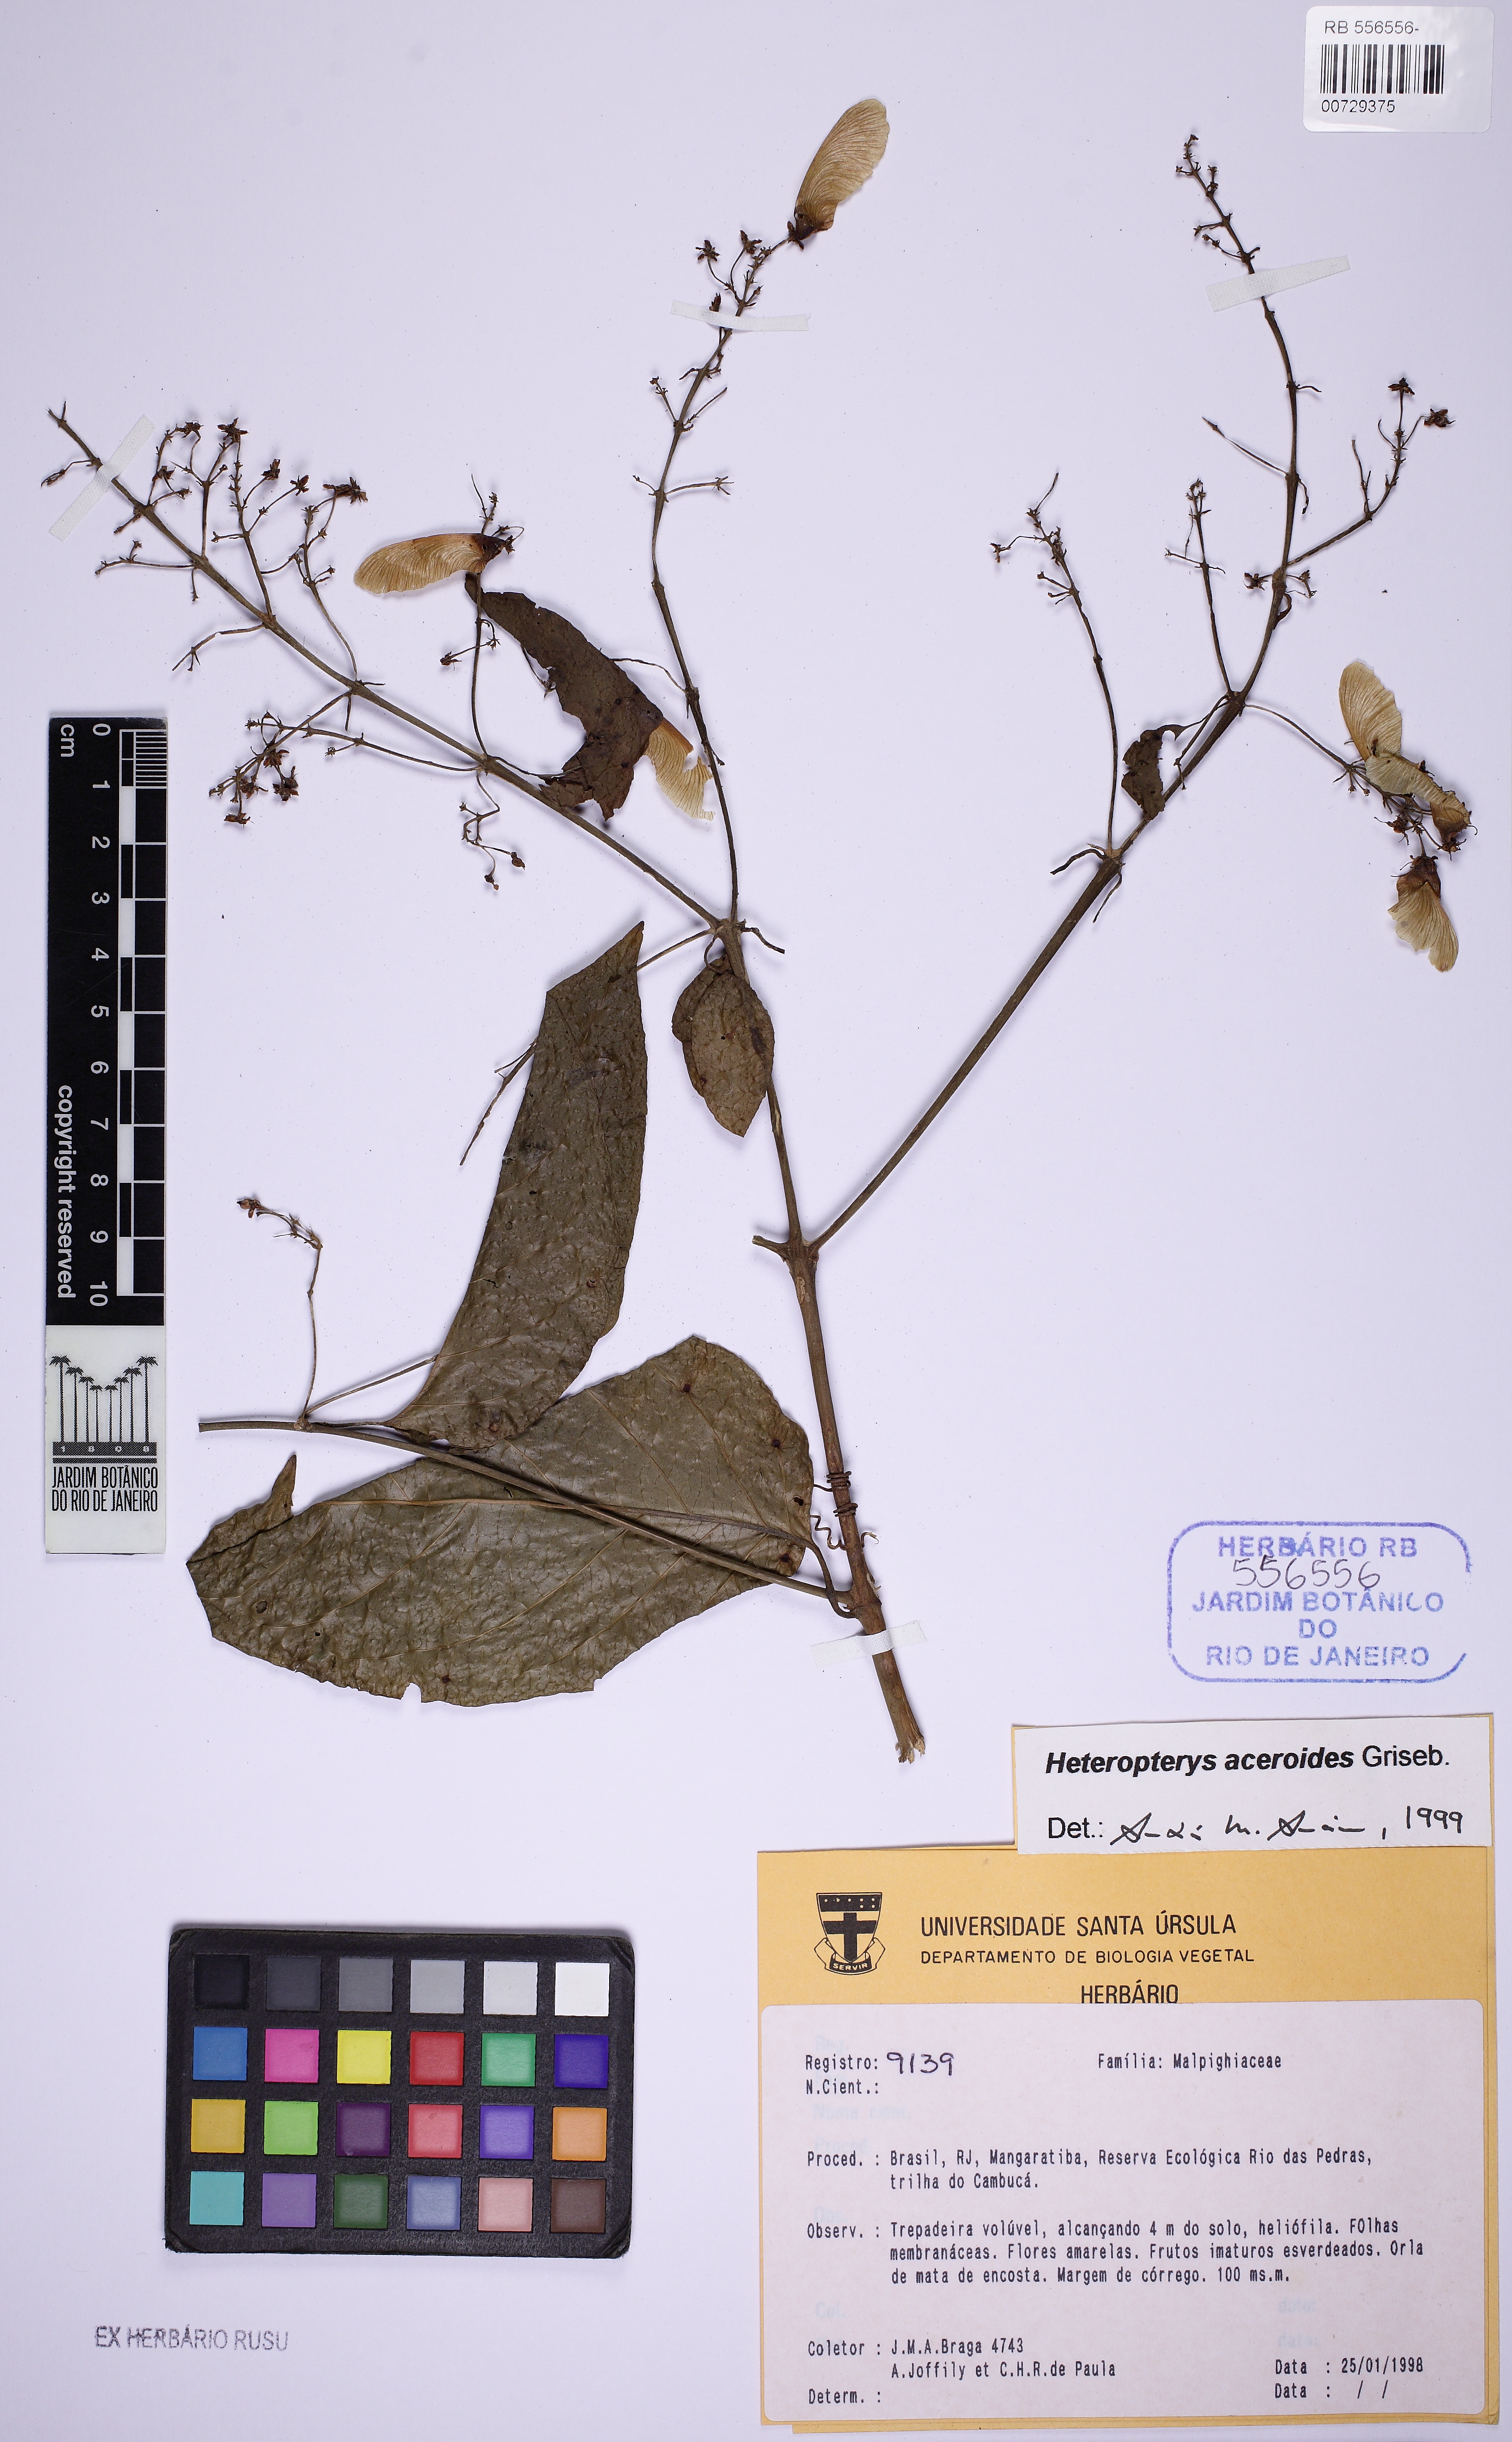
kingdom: Plantae
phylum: Tracheophyta
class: Magnoliopsida
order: Malpighiales
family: Malpighiaceae
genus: Heteropterys
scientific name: Heteropterys intermedia
